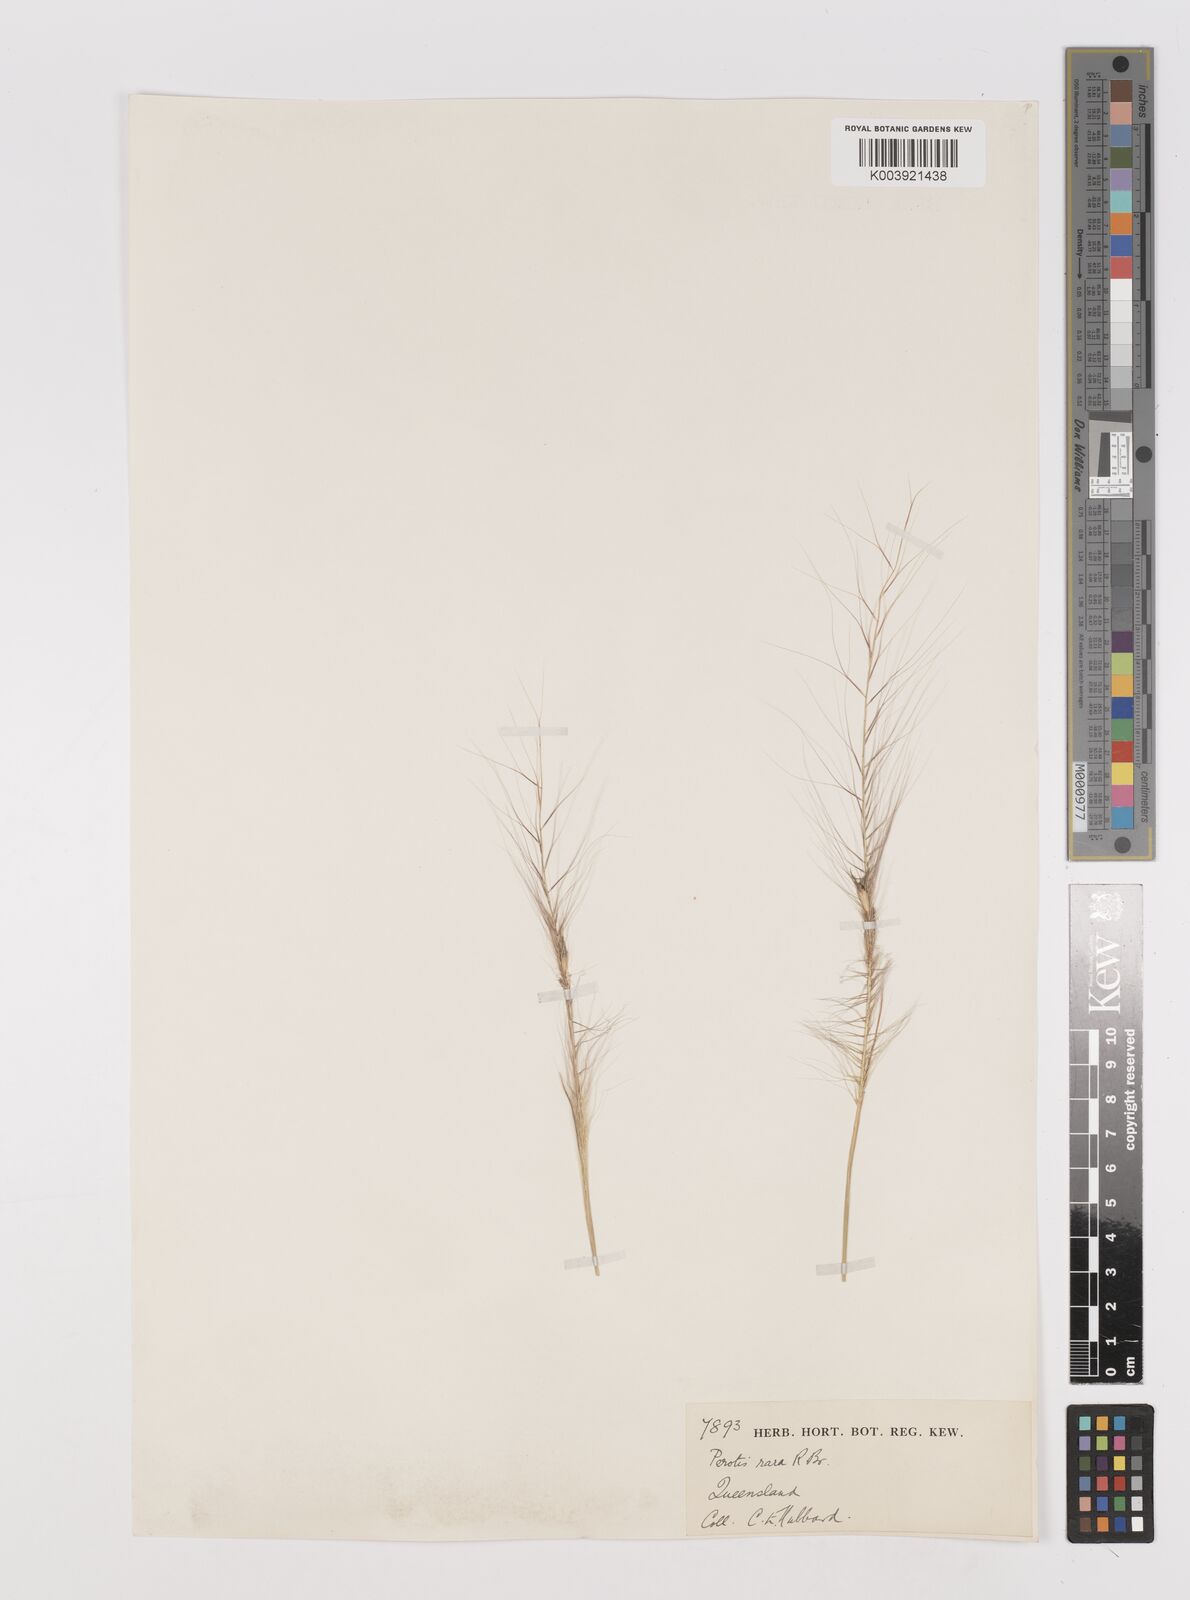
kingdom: Plantae
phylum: Tracheophyta
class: Liliopsida
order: Poales
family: Poaceae
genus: Perotis
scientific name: Perotis rara
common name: Comet grass
